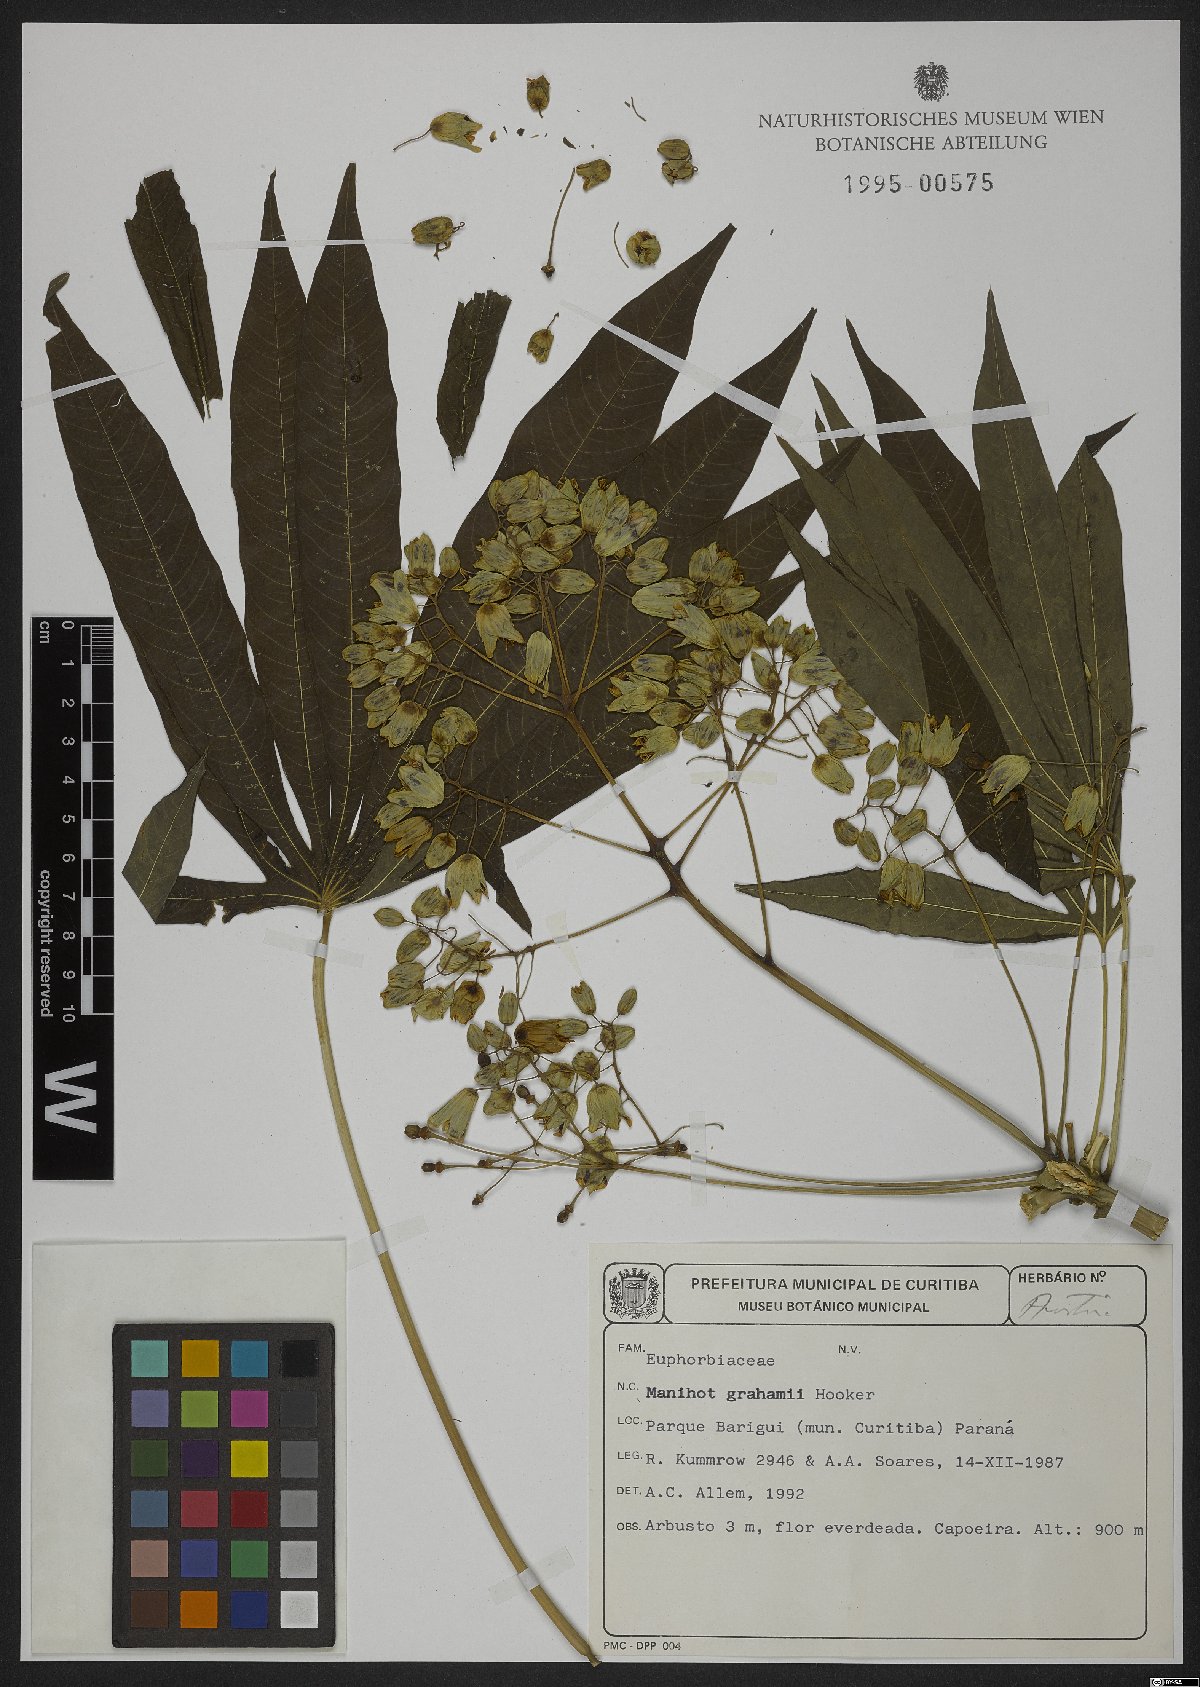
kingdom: Plantae
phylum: Tracheophyta
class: Magnoliopsida
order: Malpighiales
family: Euphorbiaceae
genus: Manihot
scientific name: Manihot grahamii
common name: Graham's manihot
